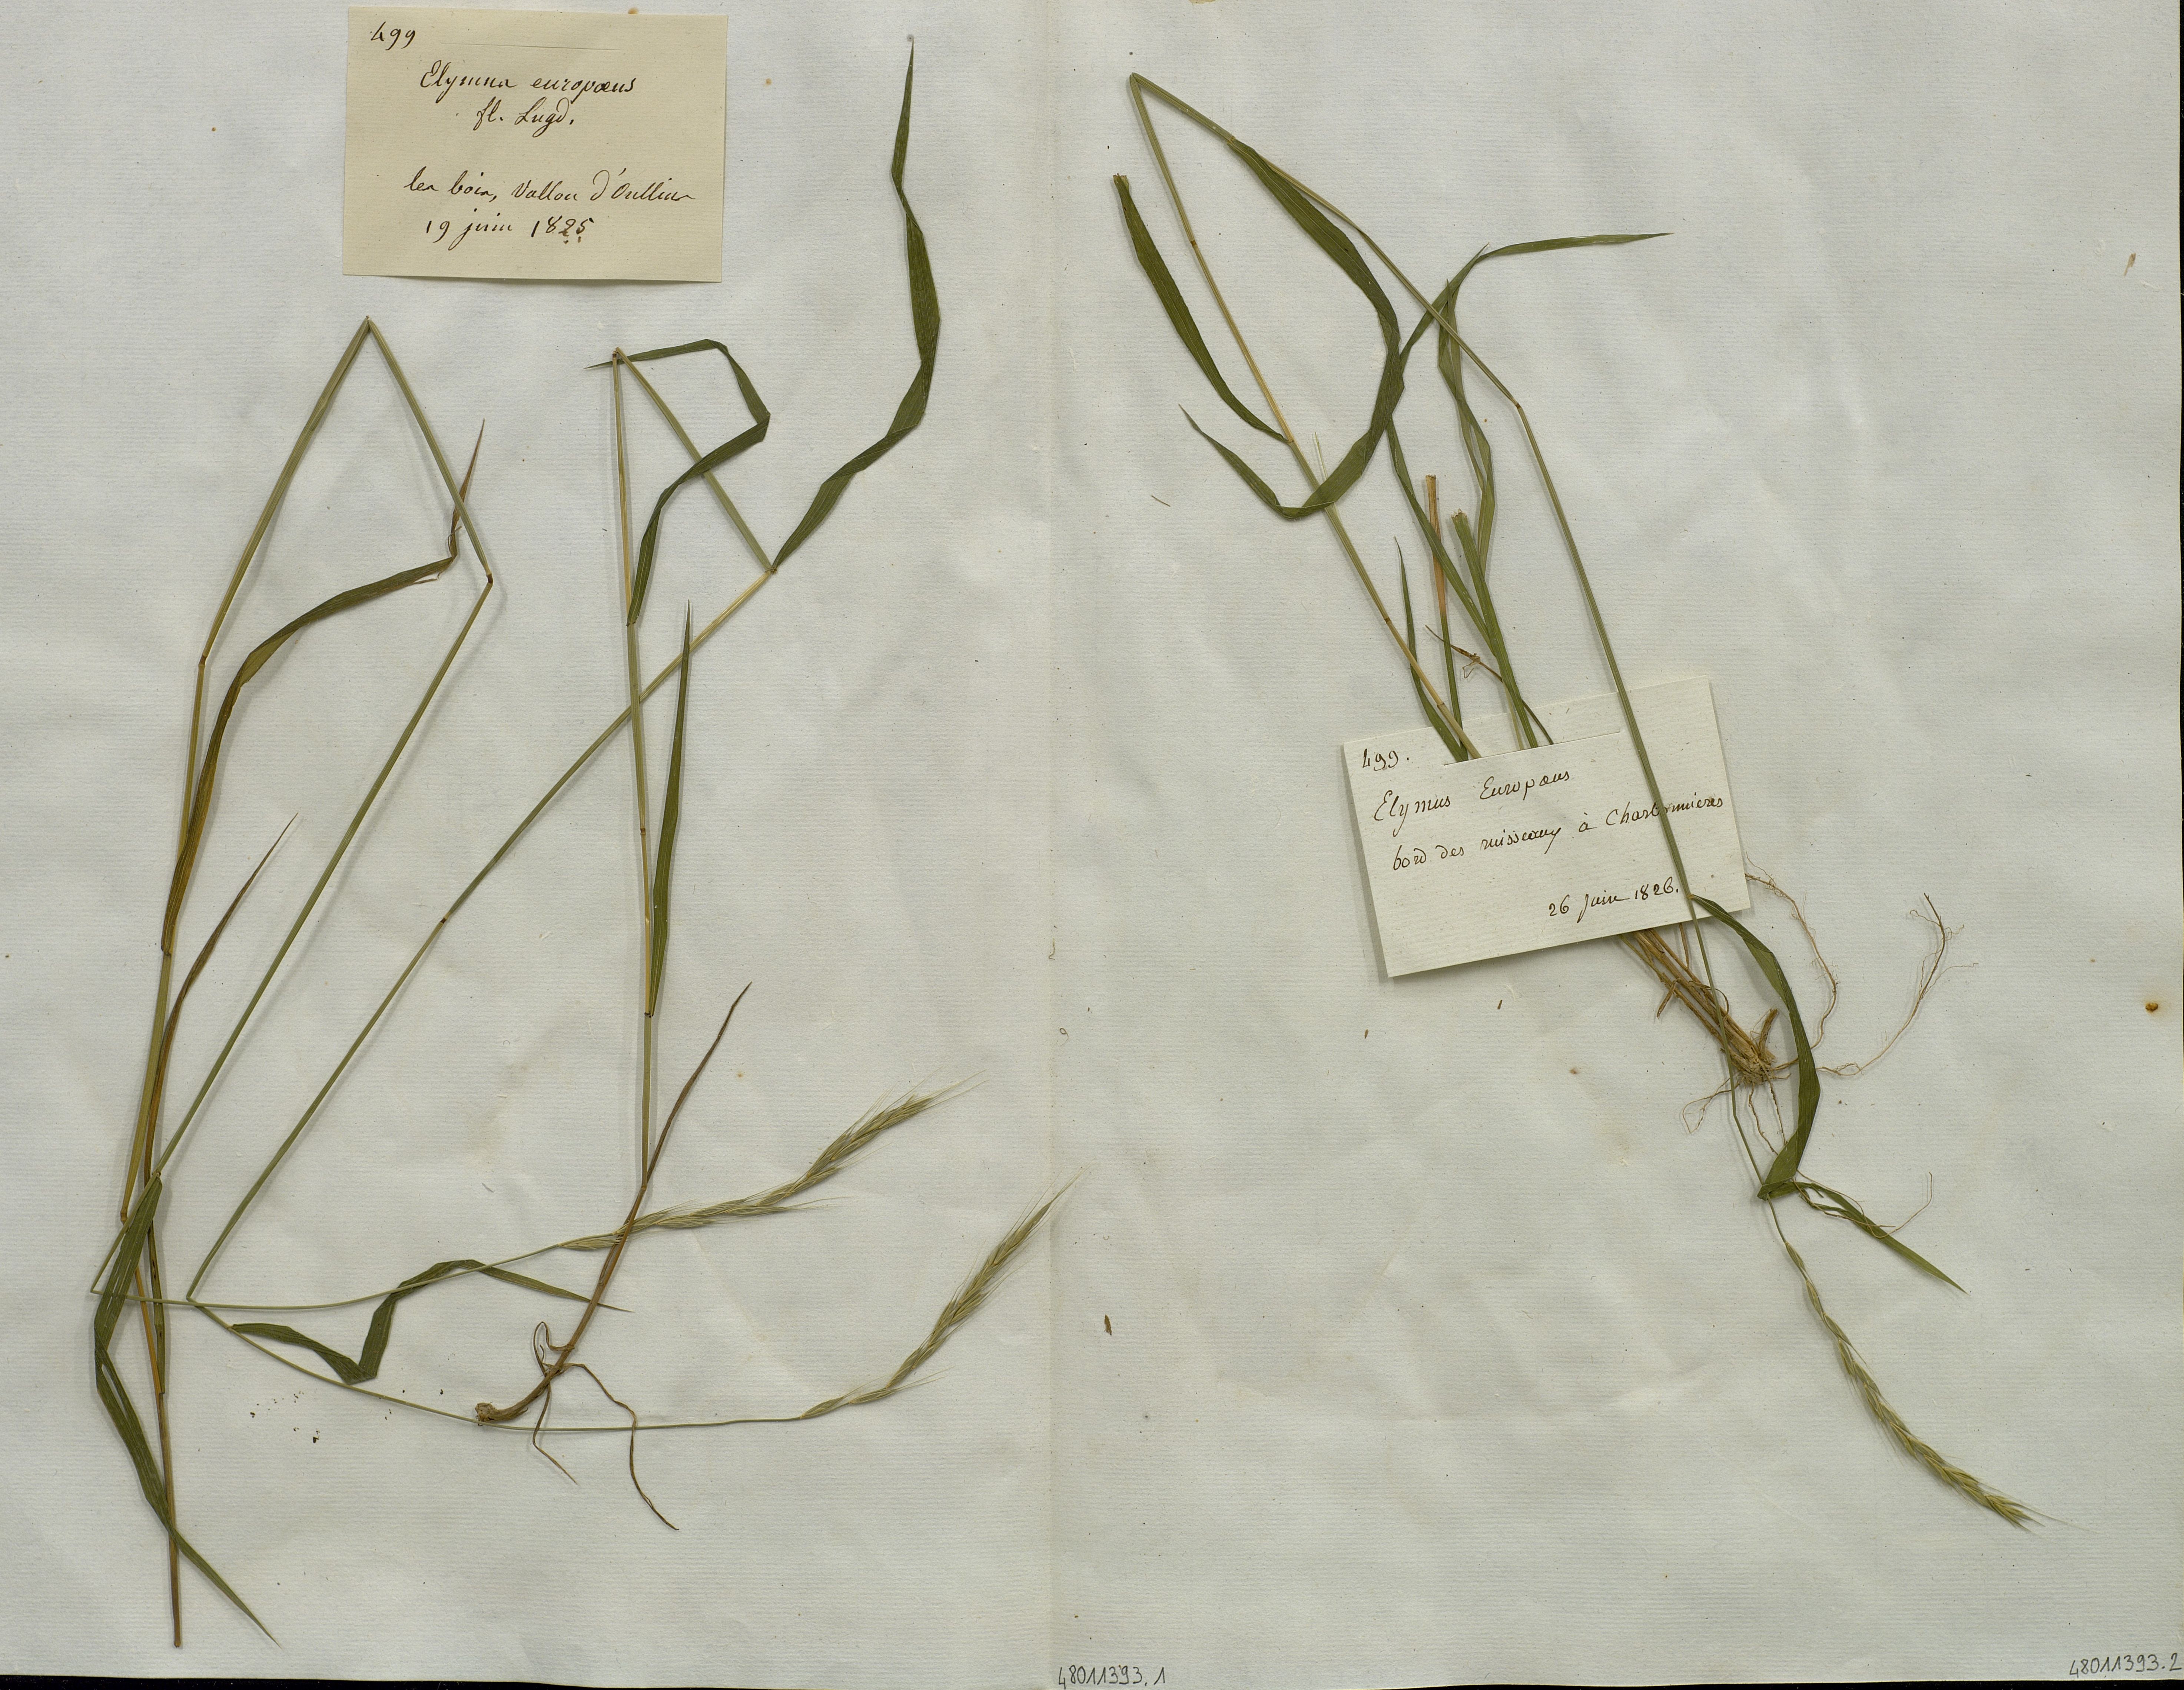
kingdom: Plantae
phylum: Tracheophyta
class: Liliopsida
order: Poales
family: Poaceae
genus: Elymus
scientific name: Elymus europaeus
